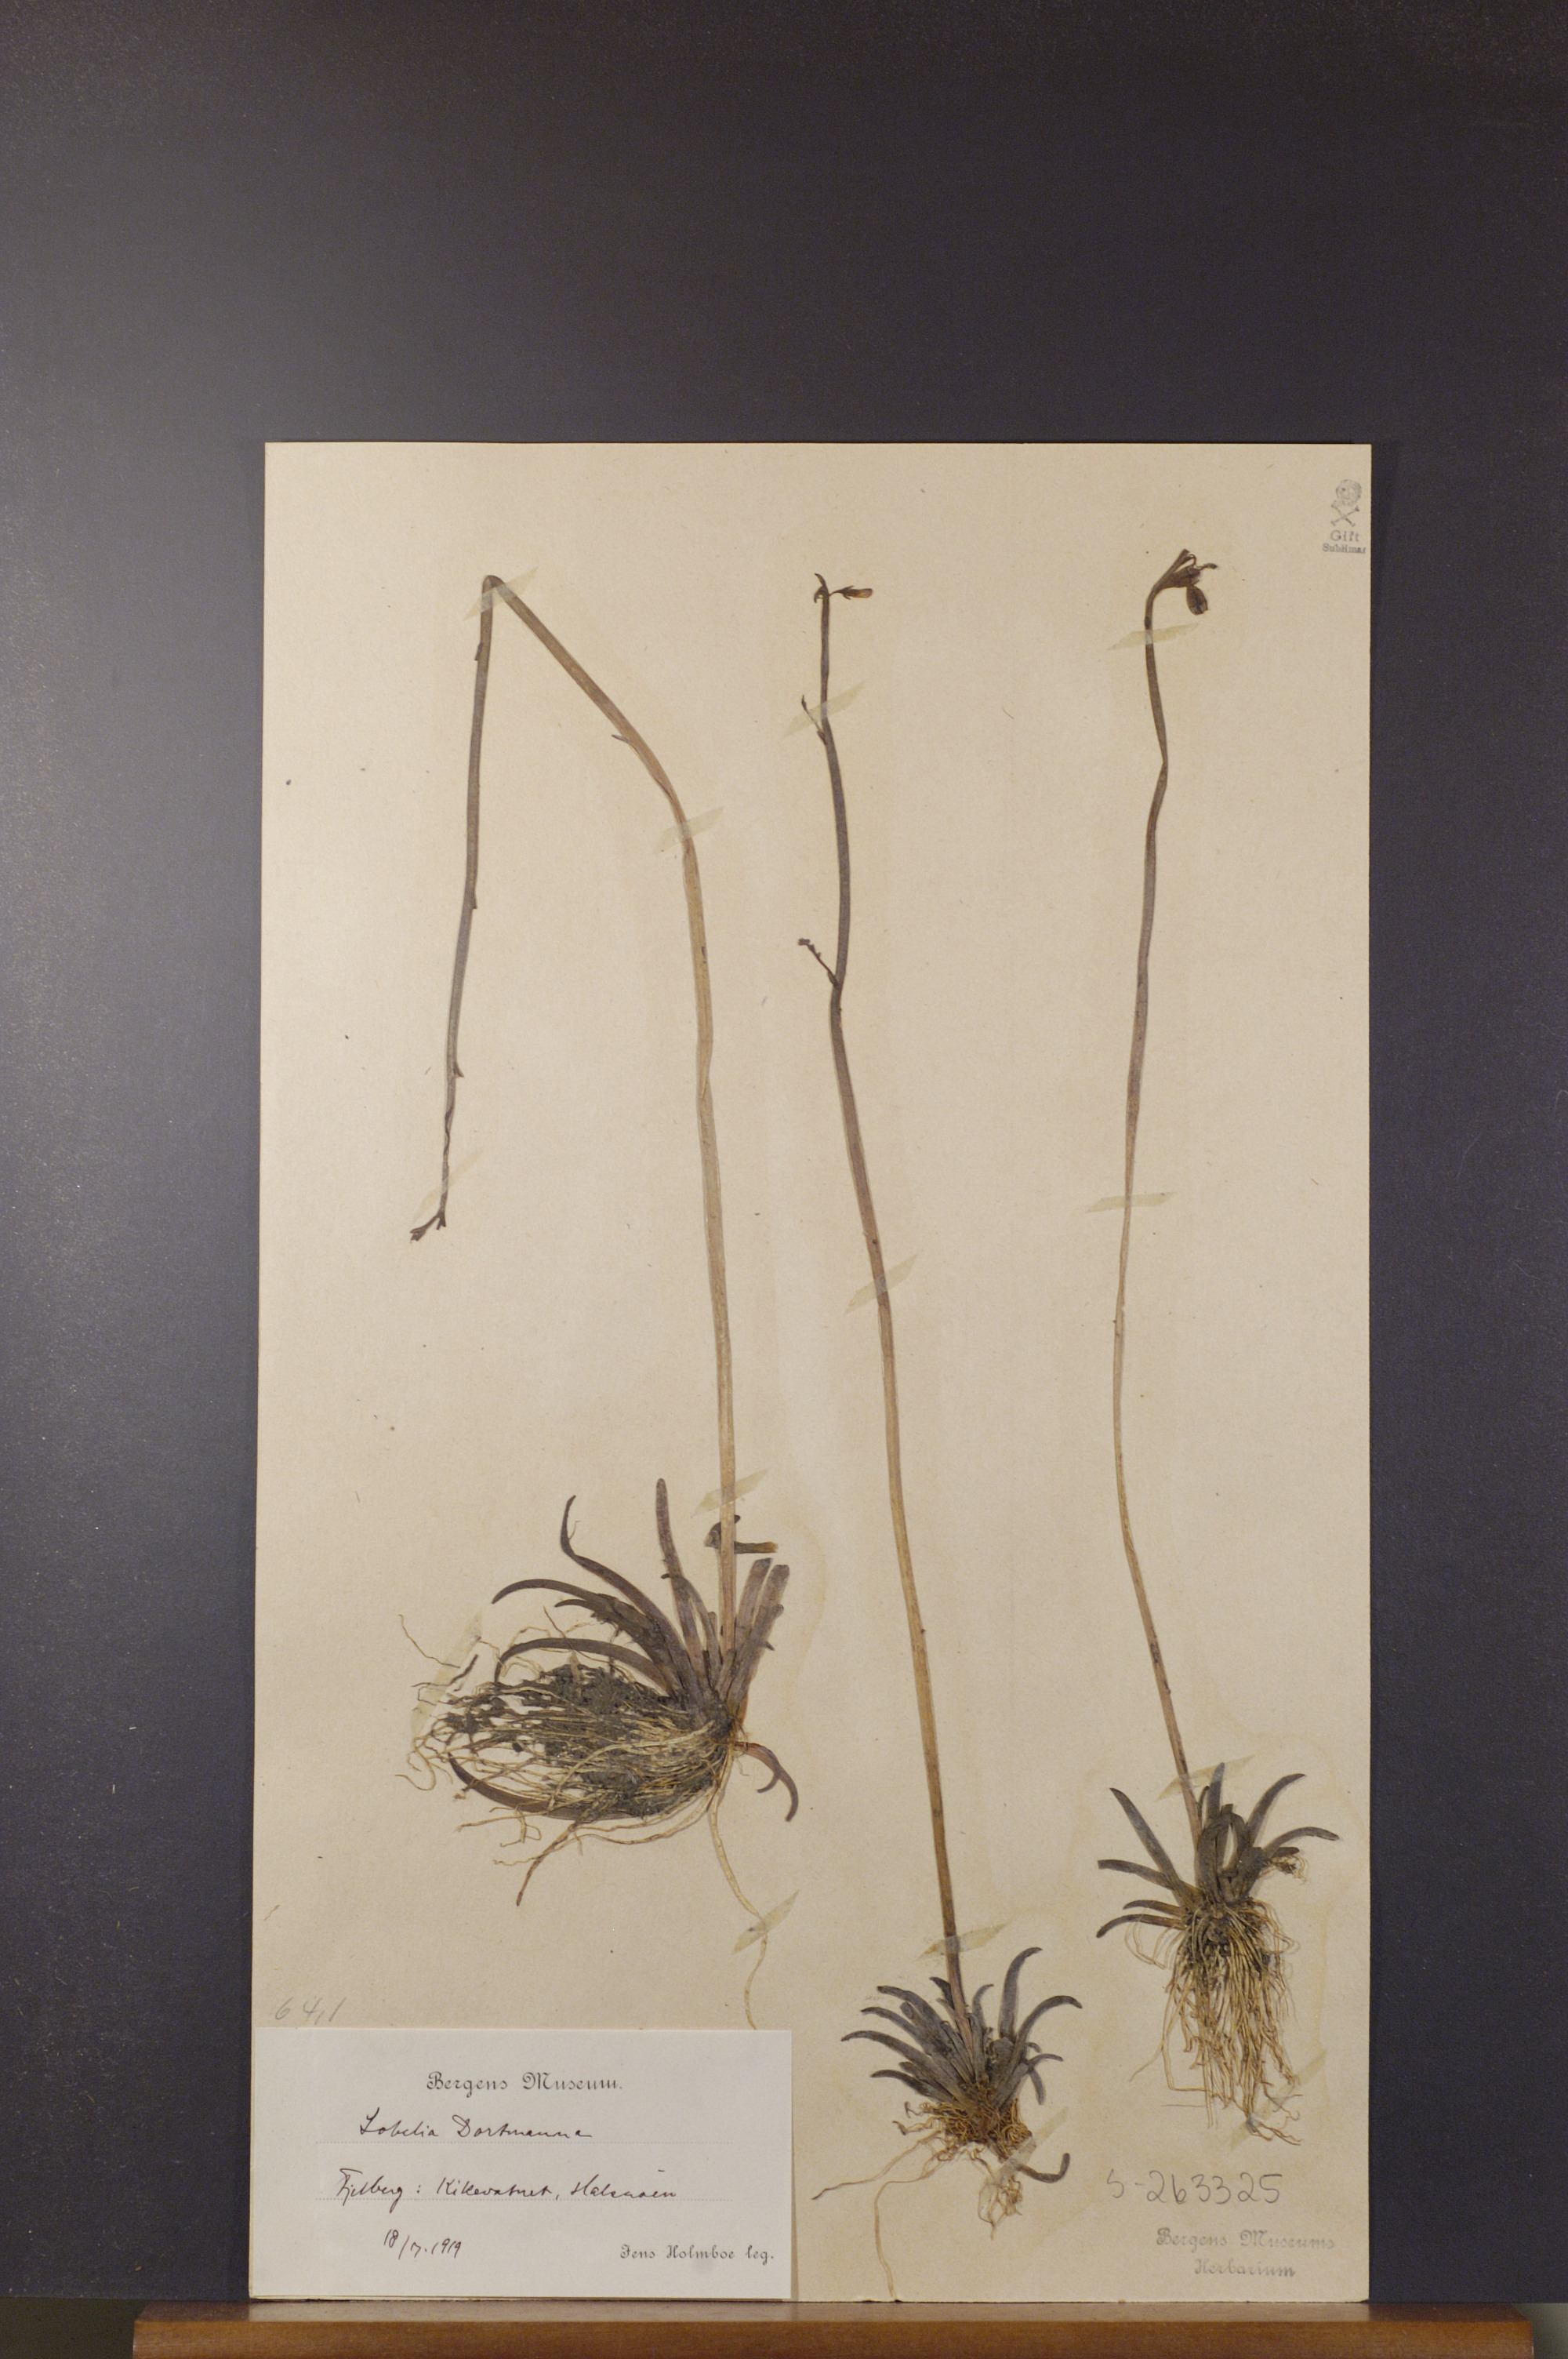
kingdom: Plantae
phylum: Tracheophyta
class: Magnoliopsida
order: Asterales
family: Campanulaceae
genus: Lobelia
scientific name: Lobelia dortmanna
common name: Water lobelia
